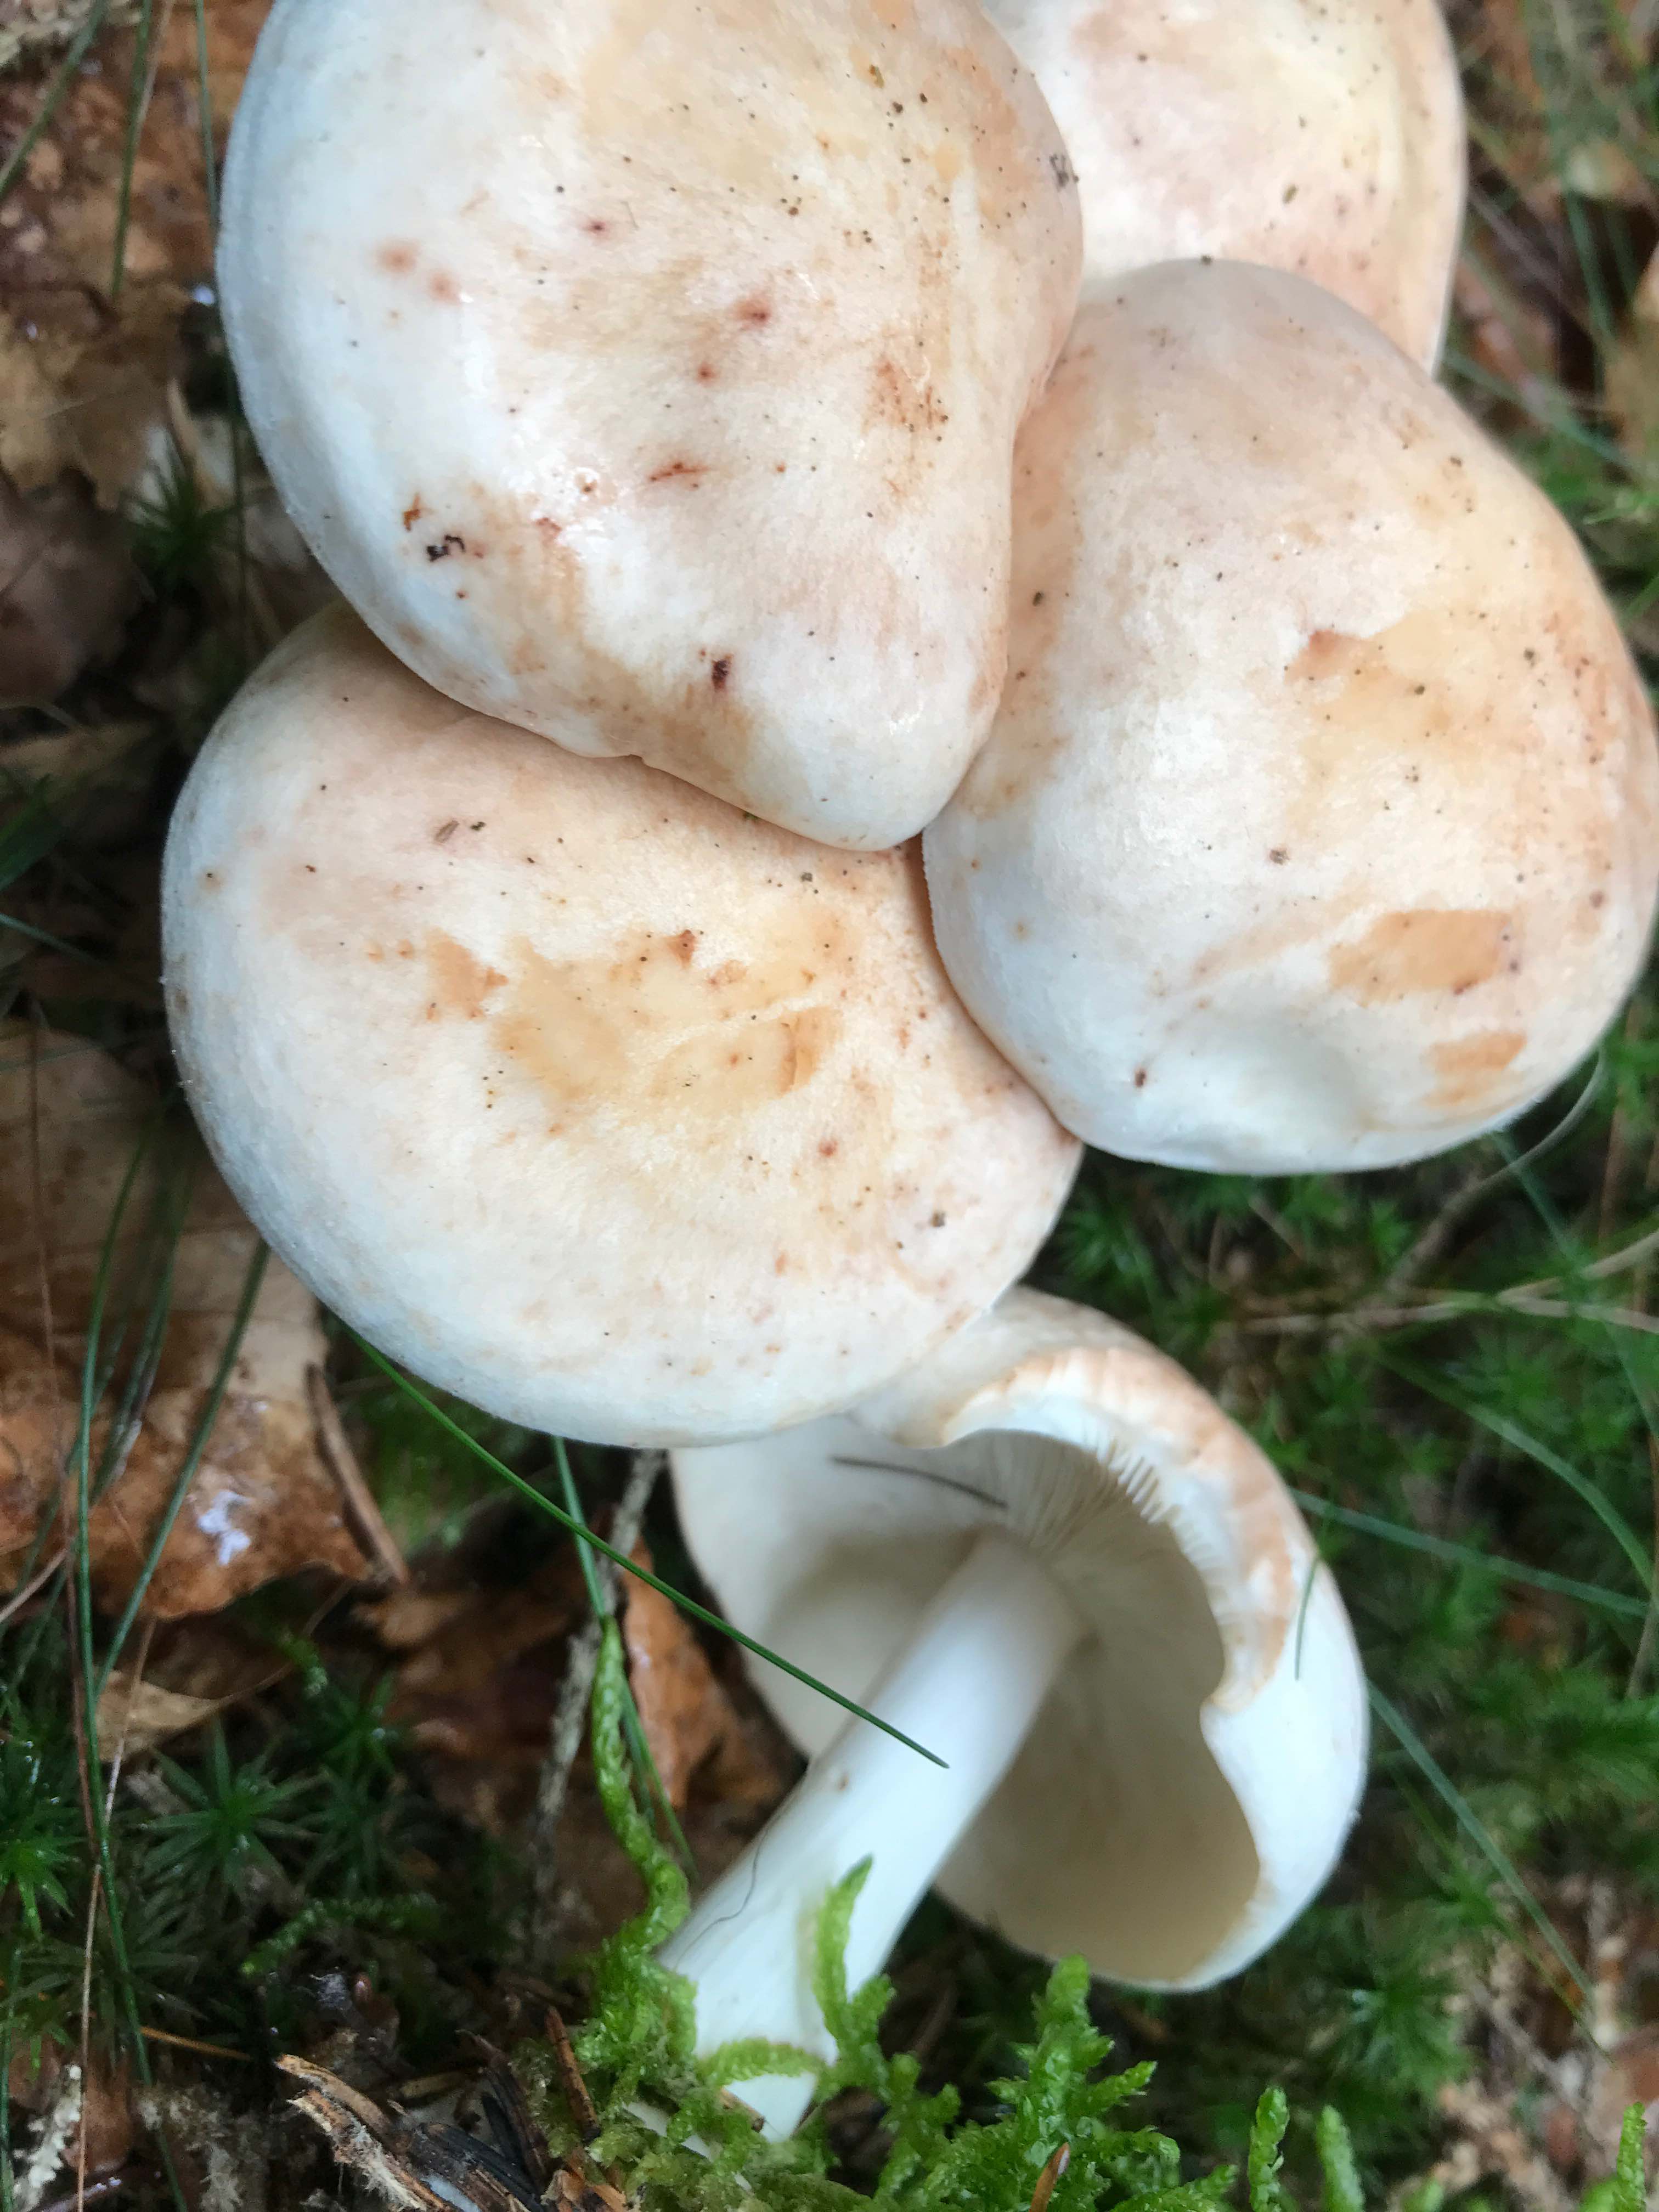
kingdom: Fungi
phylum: Basidiomycota
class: Agaricomycetes
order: Agaricales
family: Omphalotaceae
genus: Rhodocollybia
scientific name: Rhodocollybia maculata
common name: plettet fladhat
